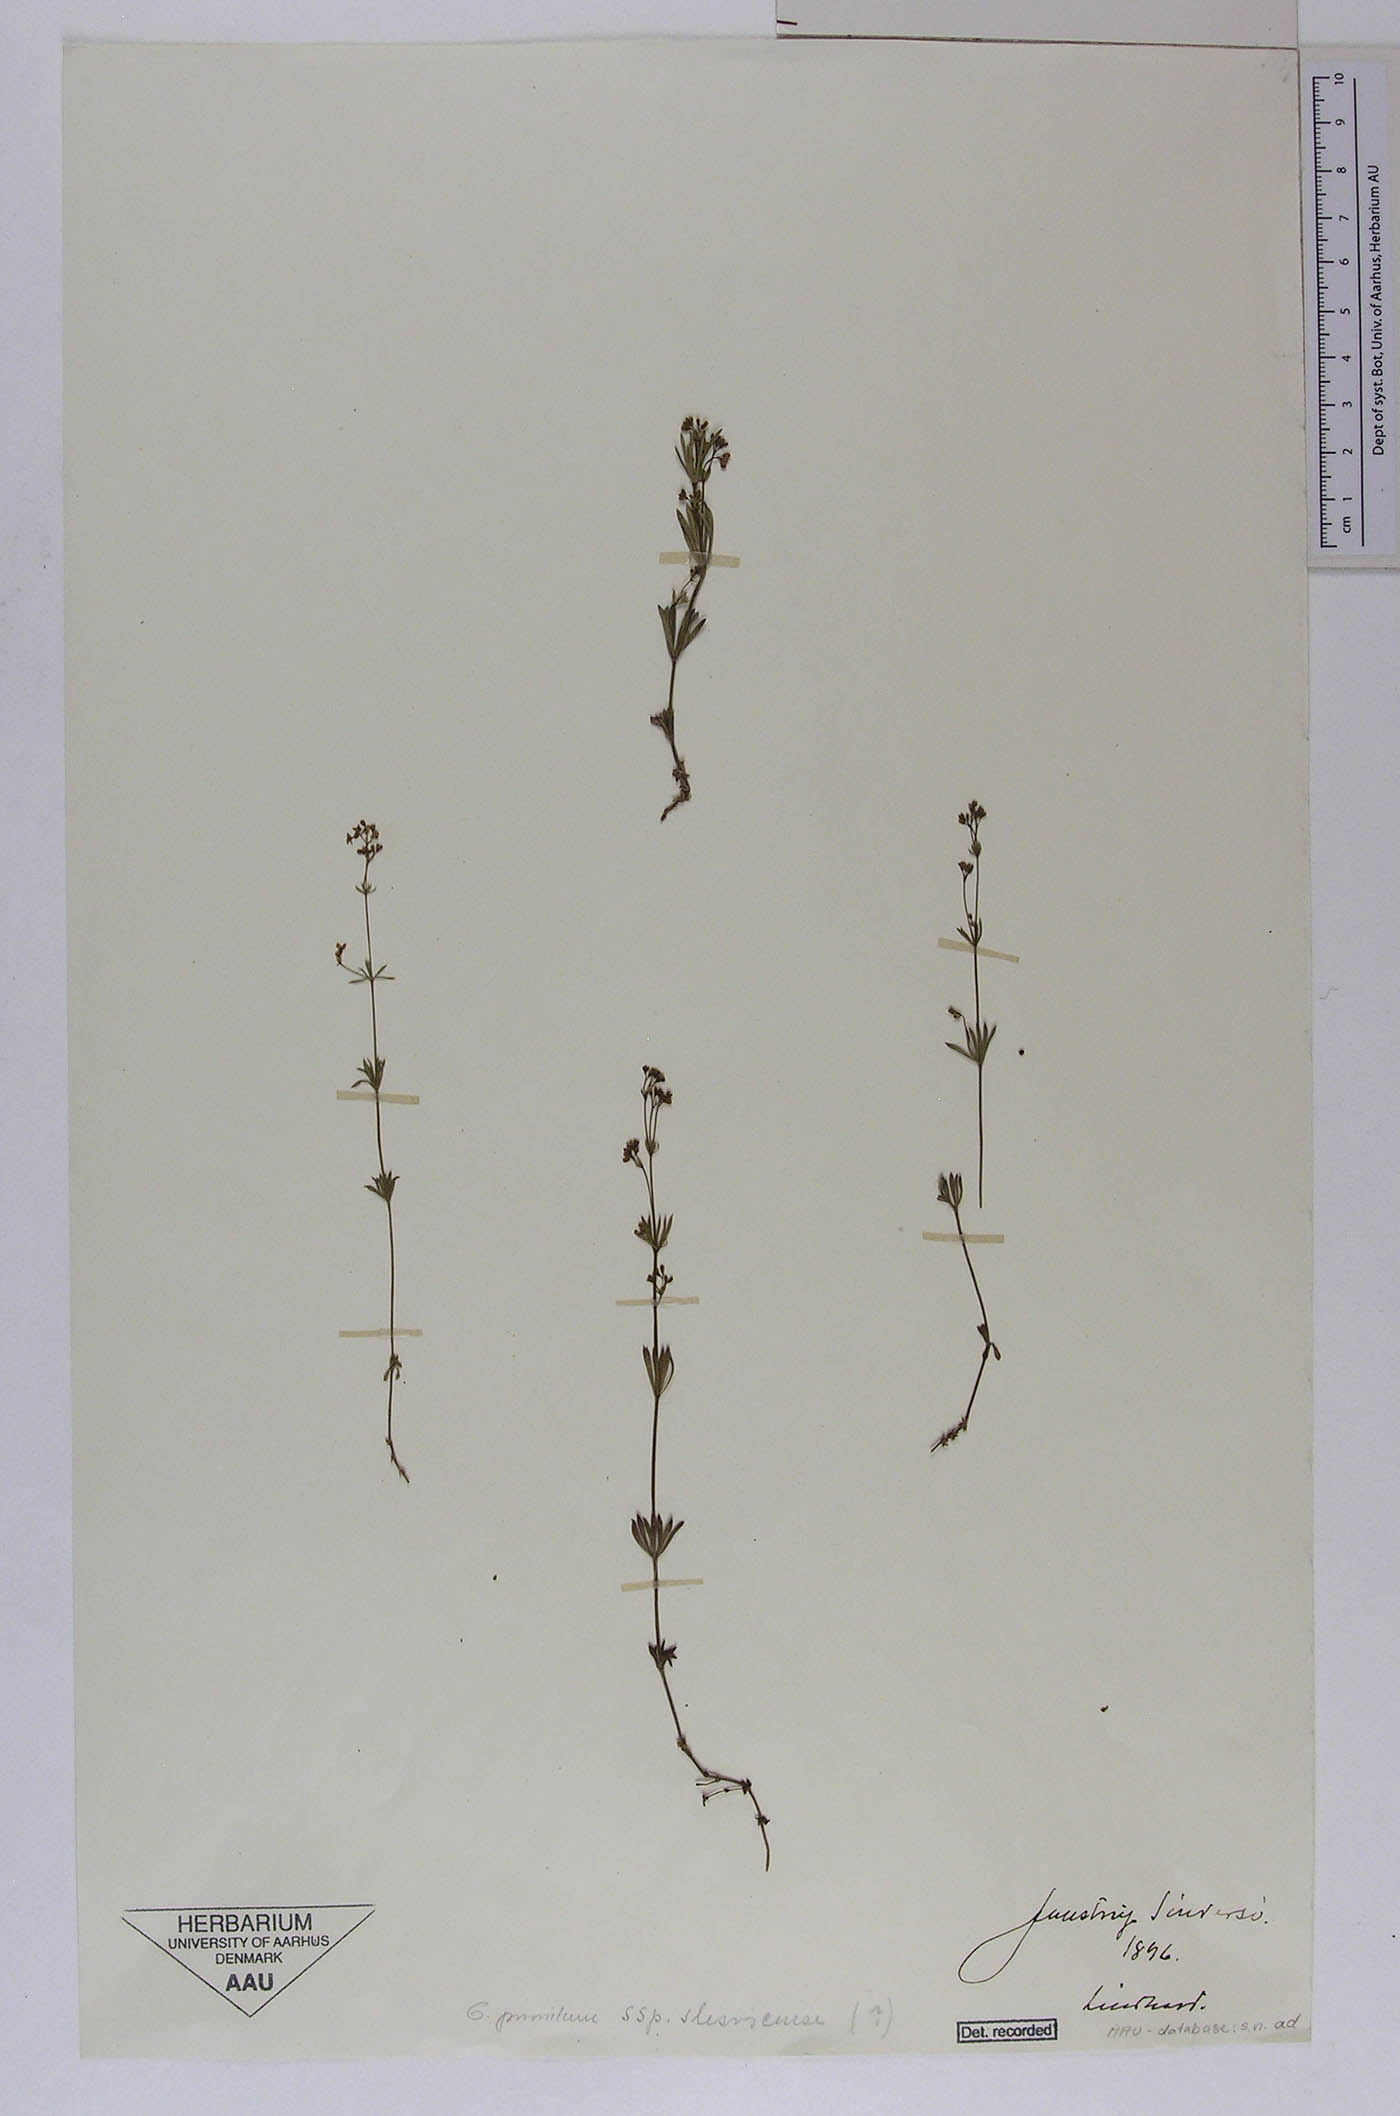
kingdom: Plantae
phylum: Tracheophyta
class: Magnoliopsida
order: Gentianales
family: Rubiaceae
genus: Galium
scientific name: Galium pusillum
